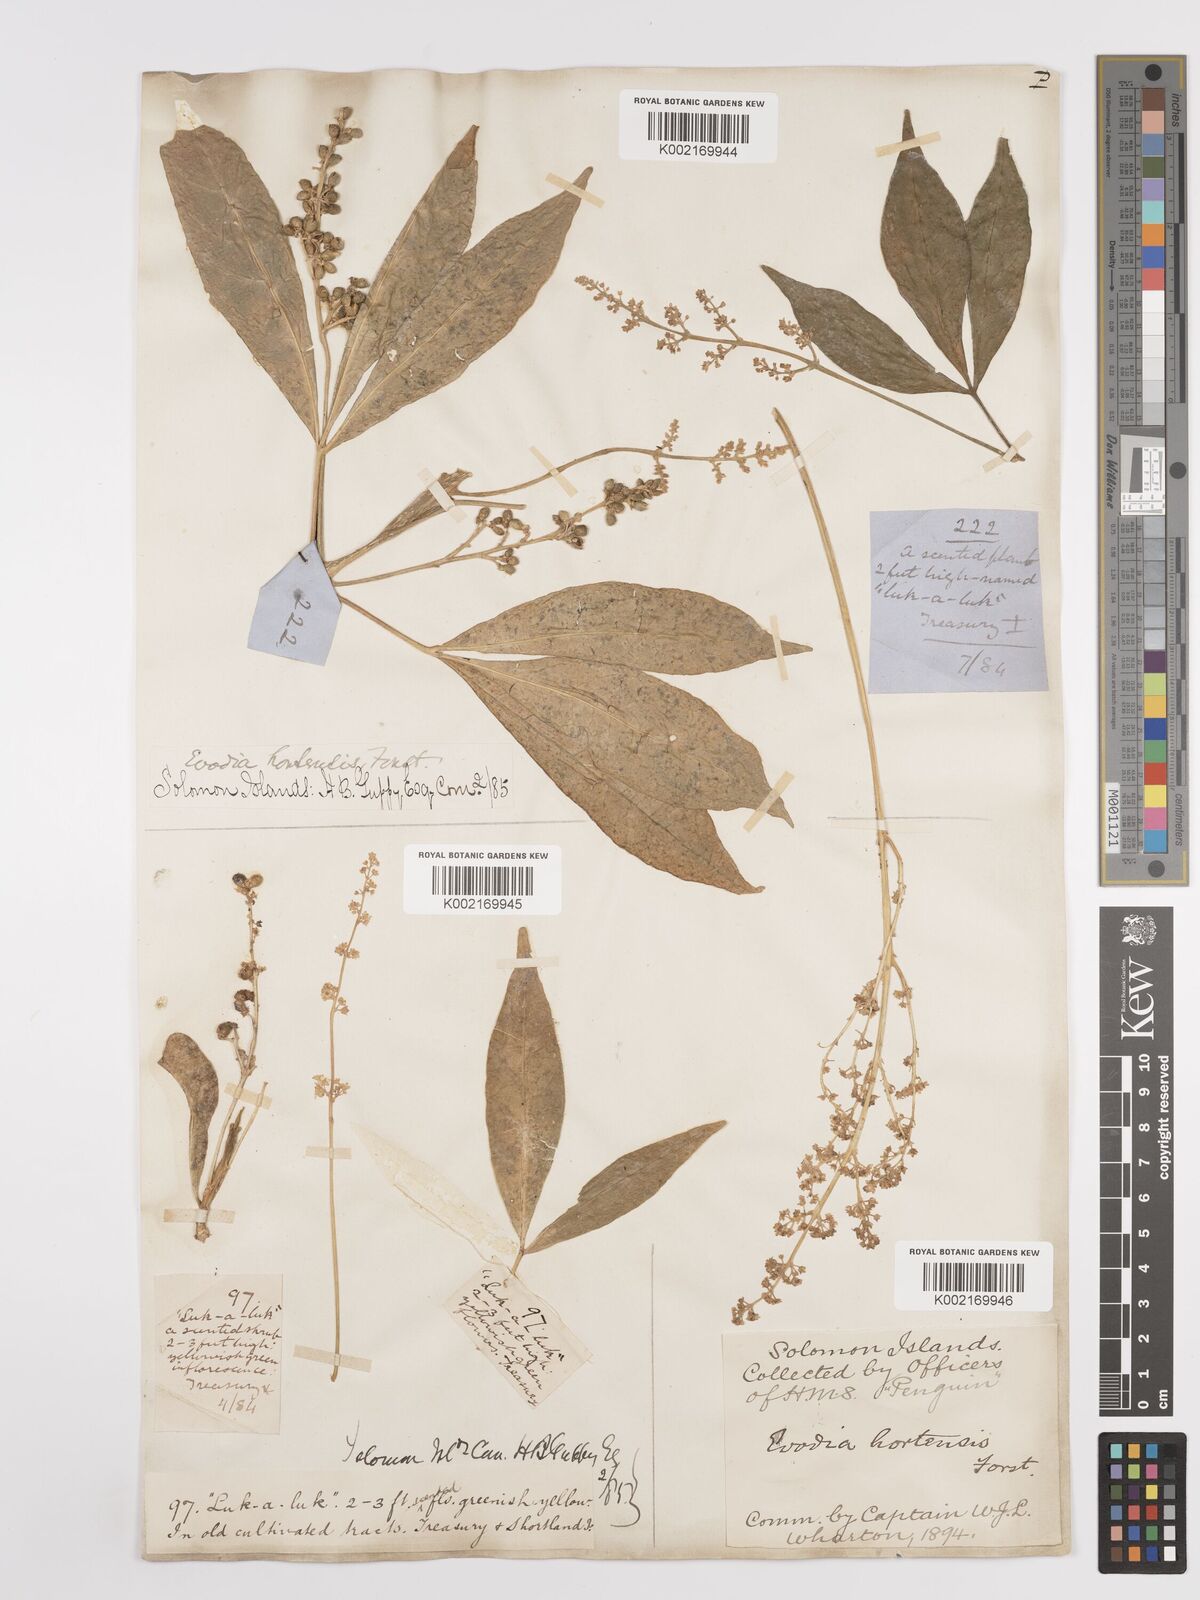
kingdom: Plantae
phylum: Tracheophyta
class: Magnoliopsida
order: Sapindales
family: Rutaceae
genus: Euodia
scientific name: Euodia hortensis
